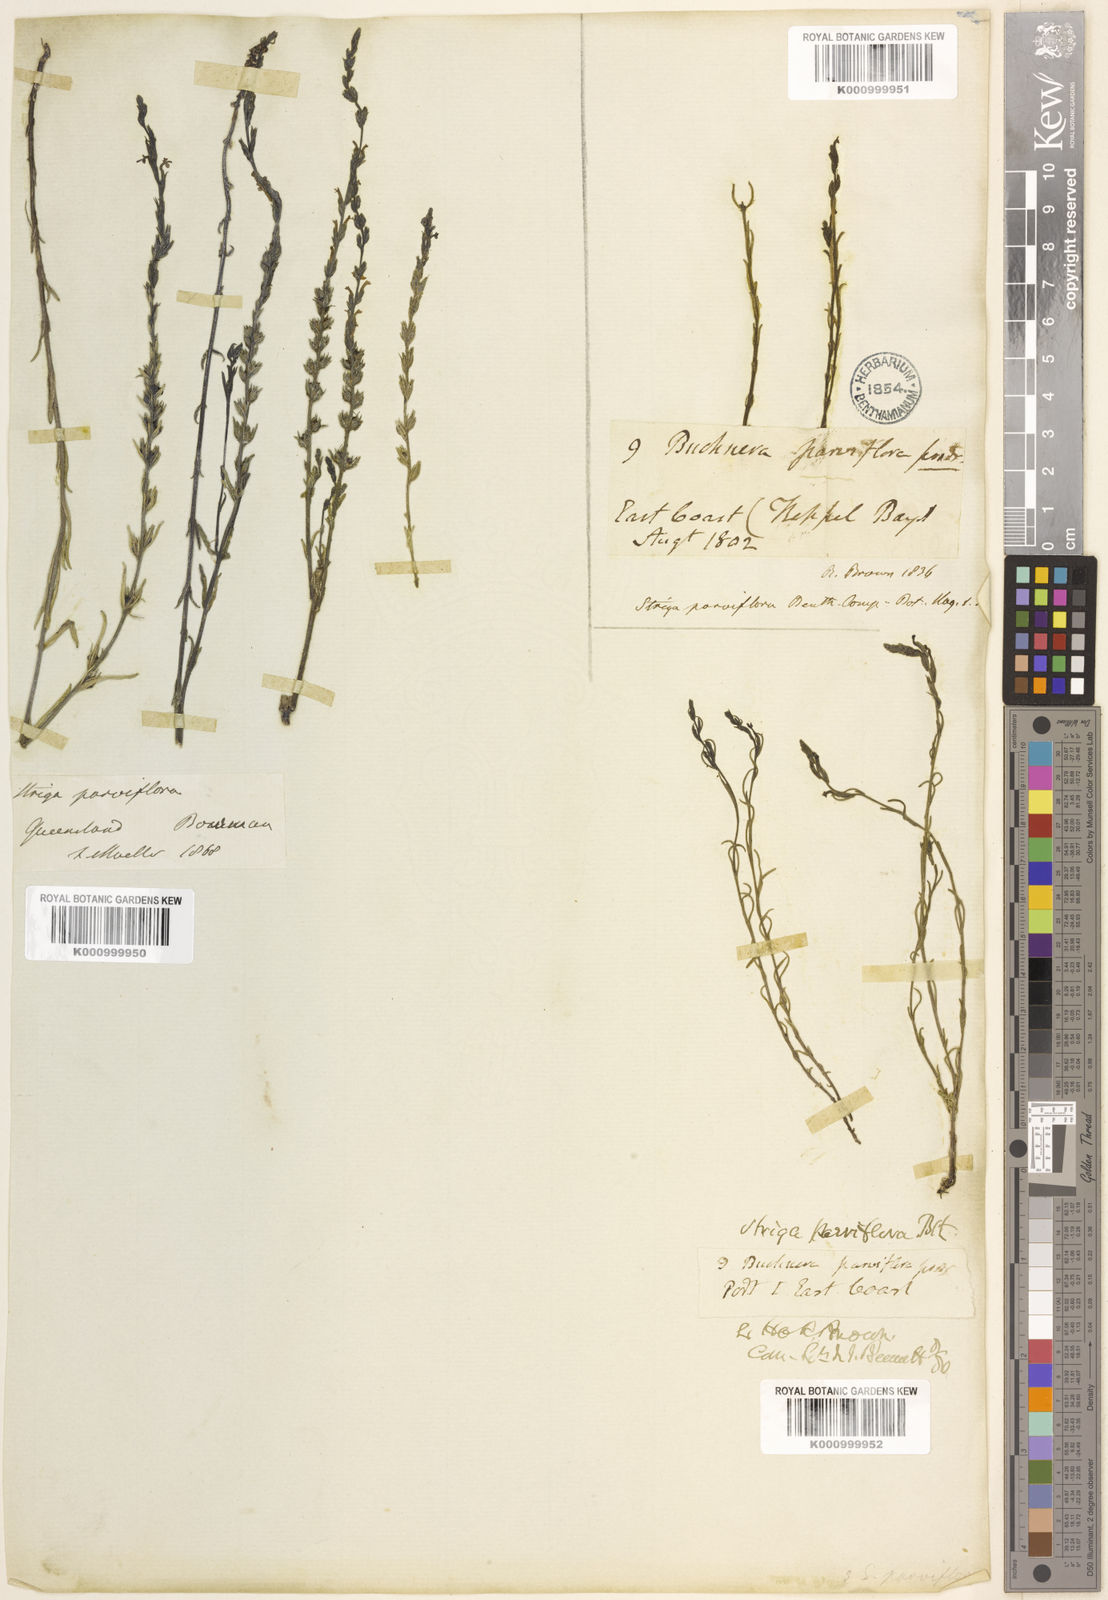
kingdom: Plantae
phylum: Tracheophyta
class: Magnoliopsida
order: Lamiales
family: Orobanchaceae
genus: Striga
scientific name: Striga parviflora
